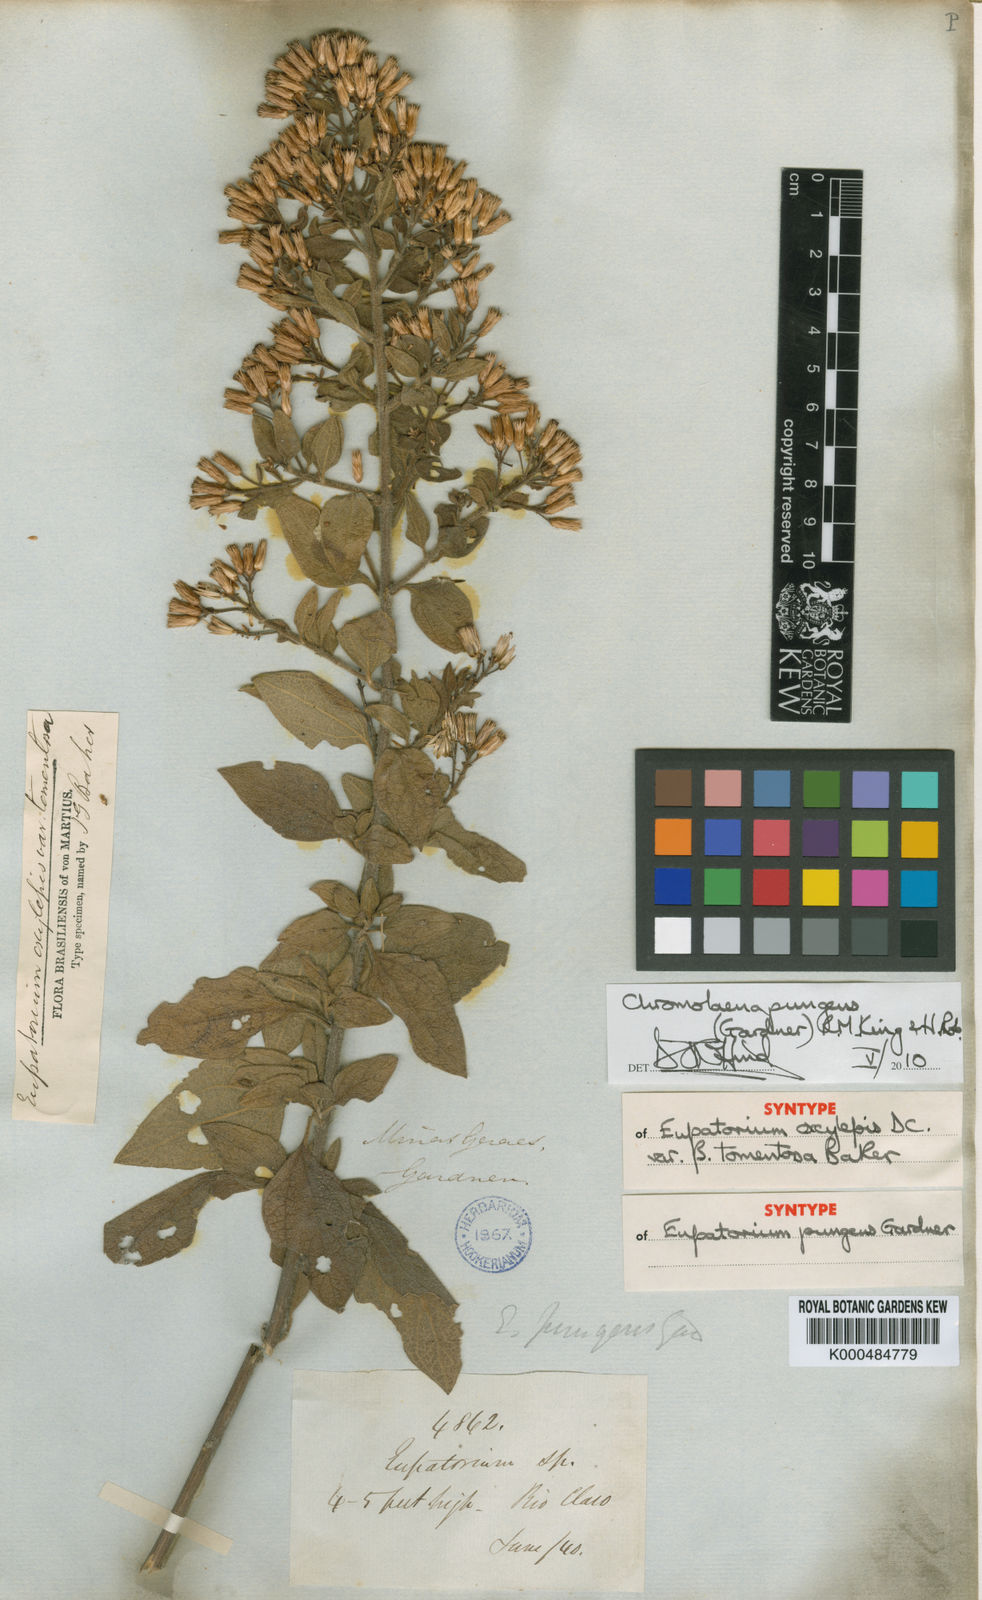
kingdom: Plantae
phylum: Tracheophyta
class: Magnoliopsida
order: Asterales
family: Asteraceae
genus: Chromolaena
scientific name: Chromolaena pungens
